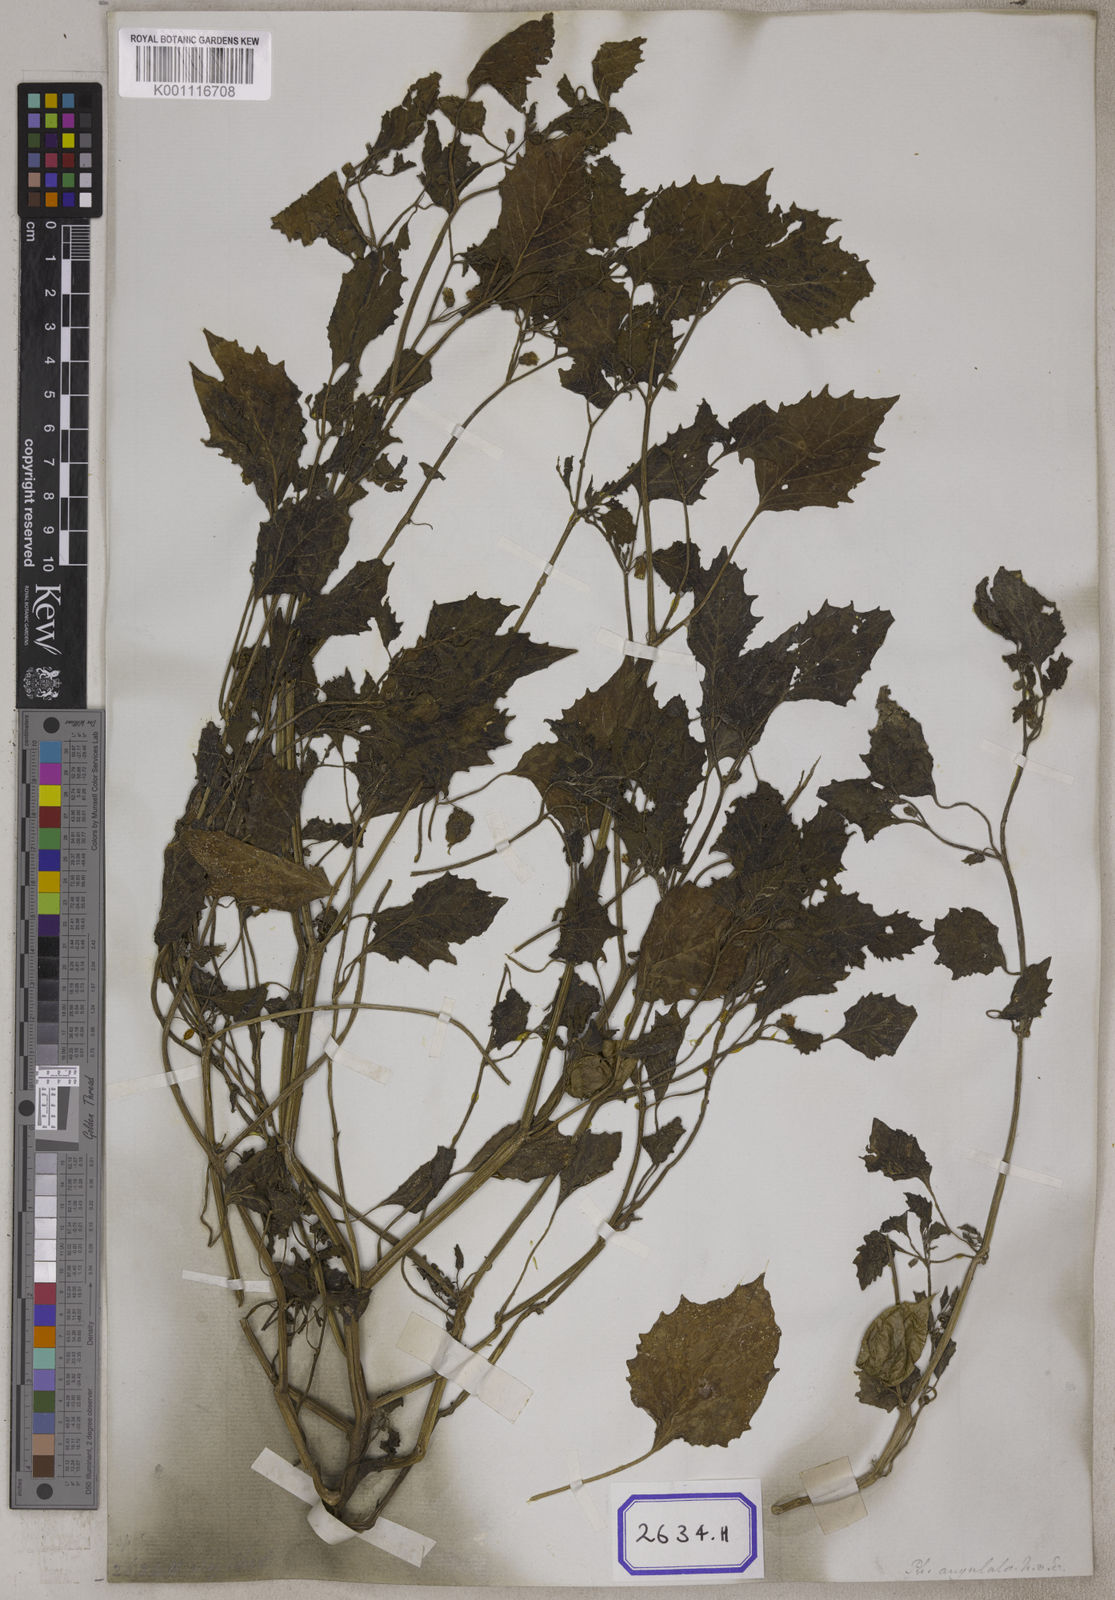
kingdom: Plantae
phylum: Tracheophyta
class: Magnoliopsida
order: Solanales
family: Solanaceae
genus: Physalis
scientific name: Physalis peruviana
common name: Cape-gooseberry
